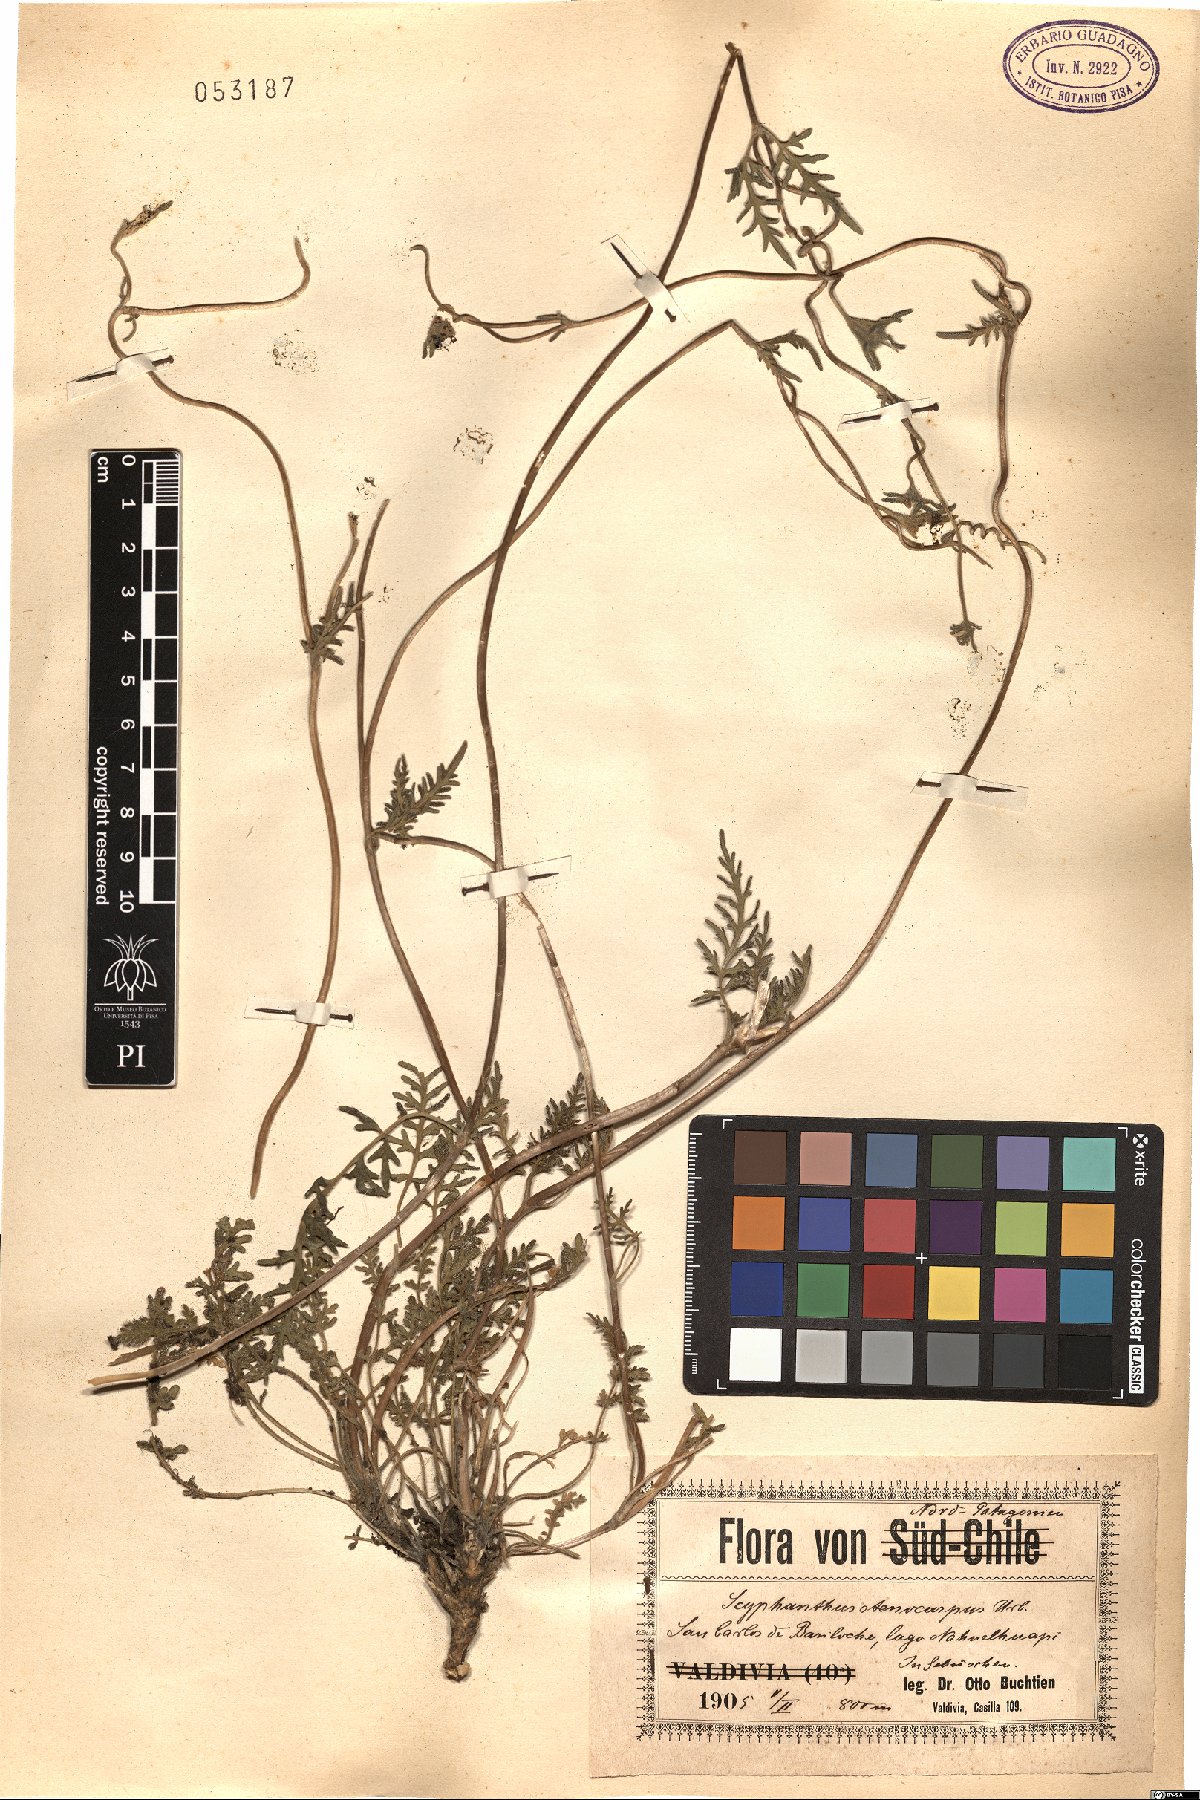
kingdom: Plantae
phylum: Tracheophyta
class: Magnoliopsida
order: Cornales
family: Loasaceae
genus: Scyphanthus
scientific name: Scyphanthus elegans
